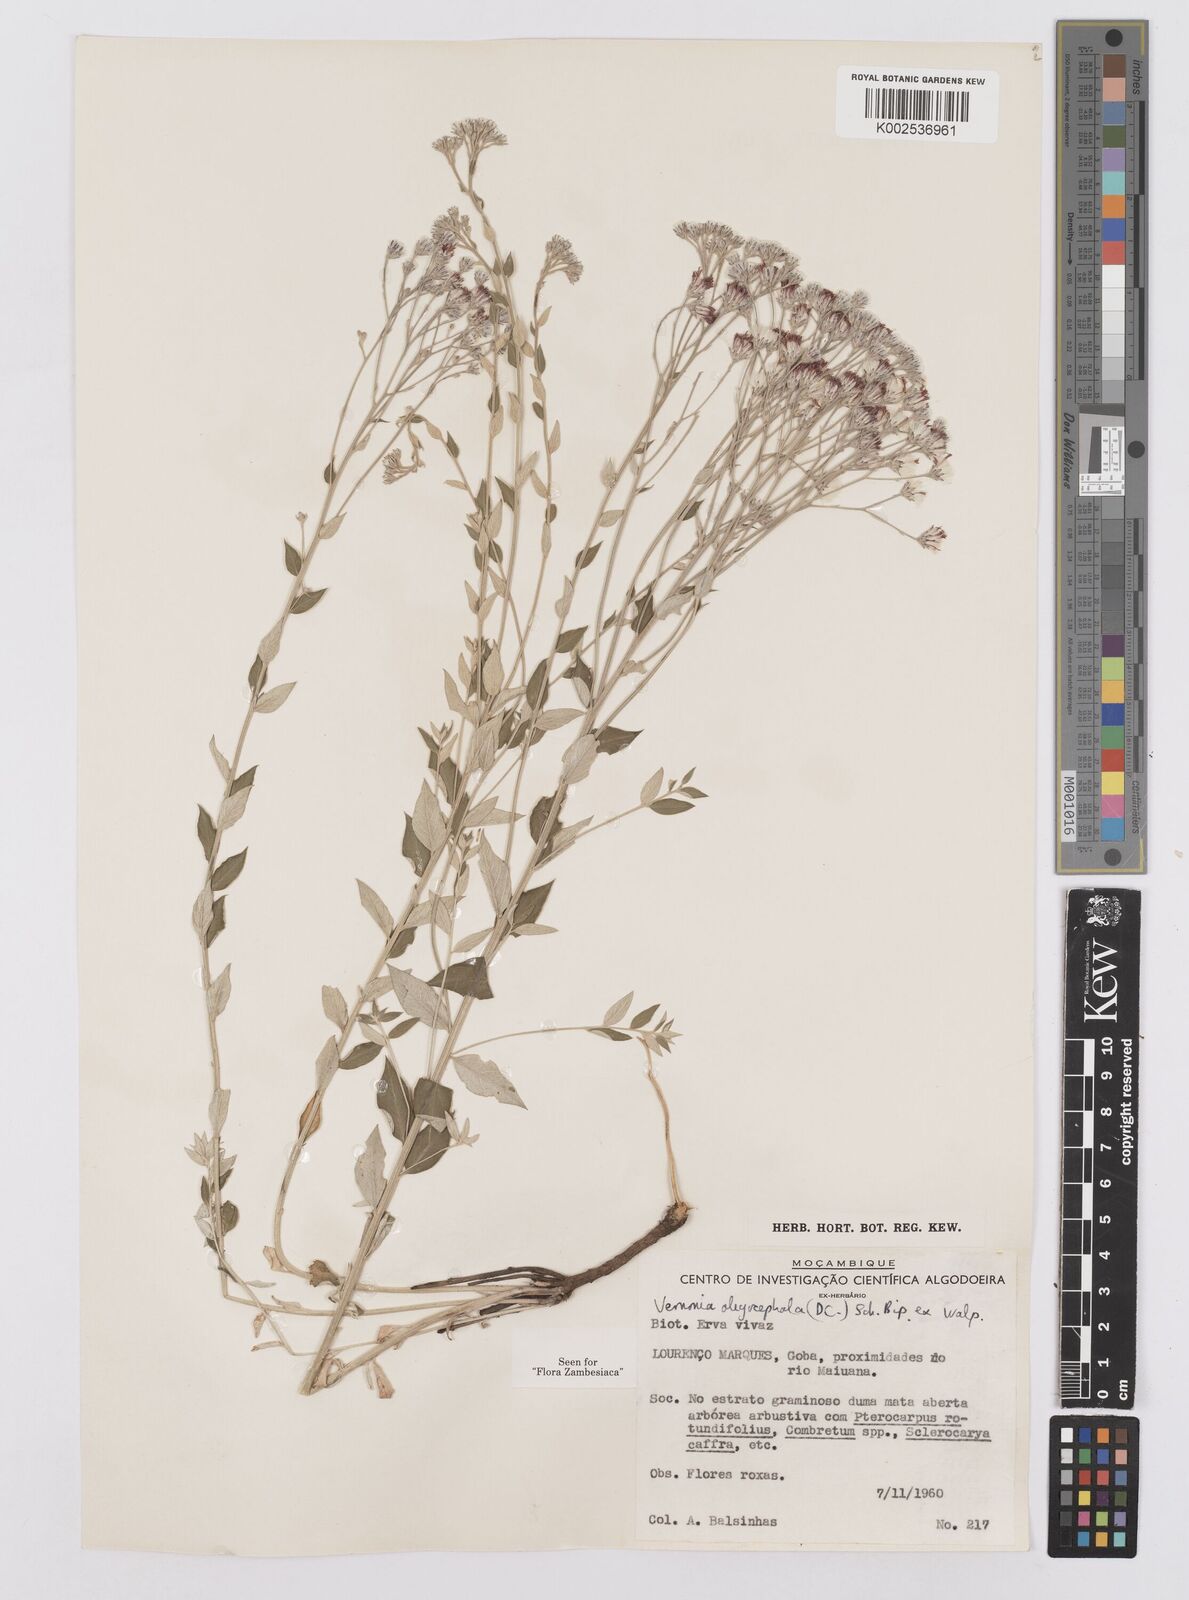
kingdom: Plantae
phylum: Tracheophyta
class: Magnoliopsida
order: Asterales
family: Asteraceae
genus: Hilliardiella
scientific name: Hilliardiella oligocephala
